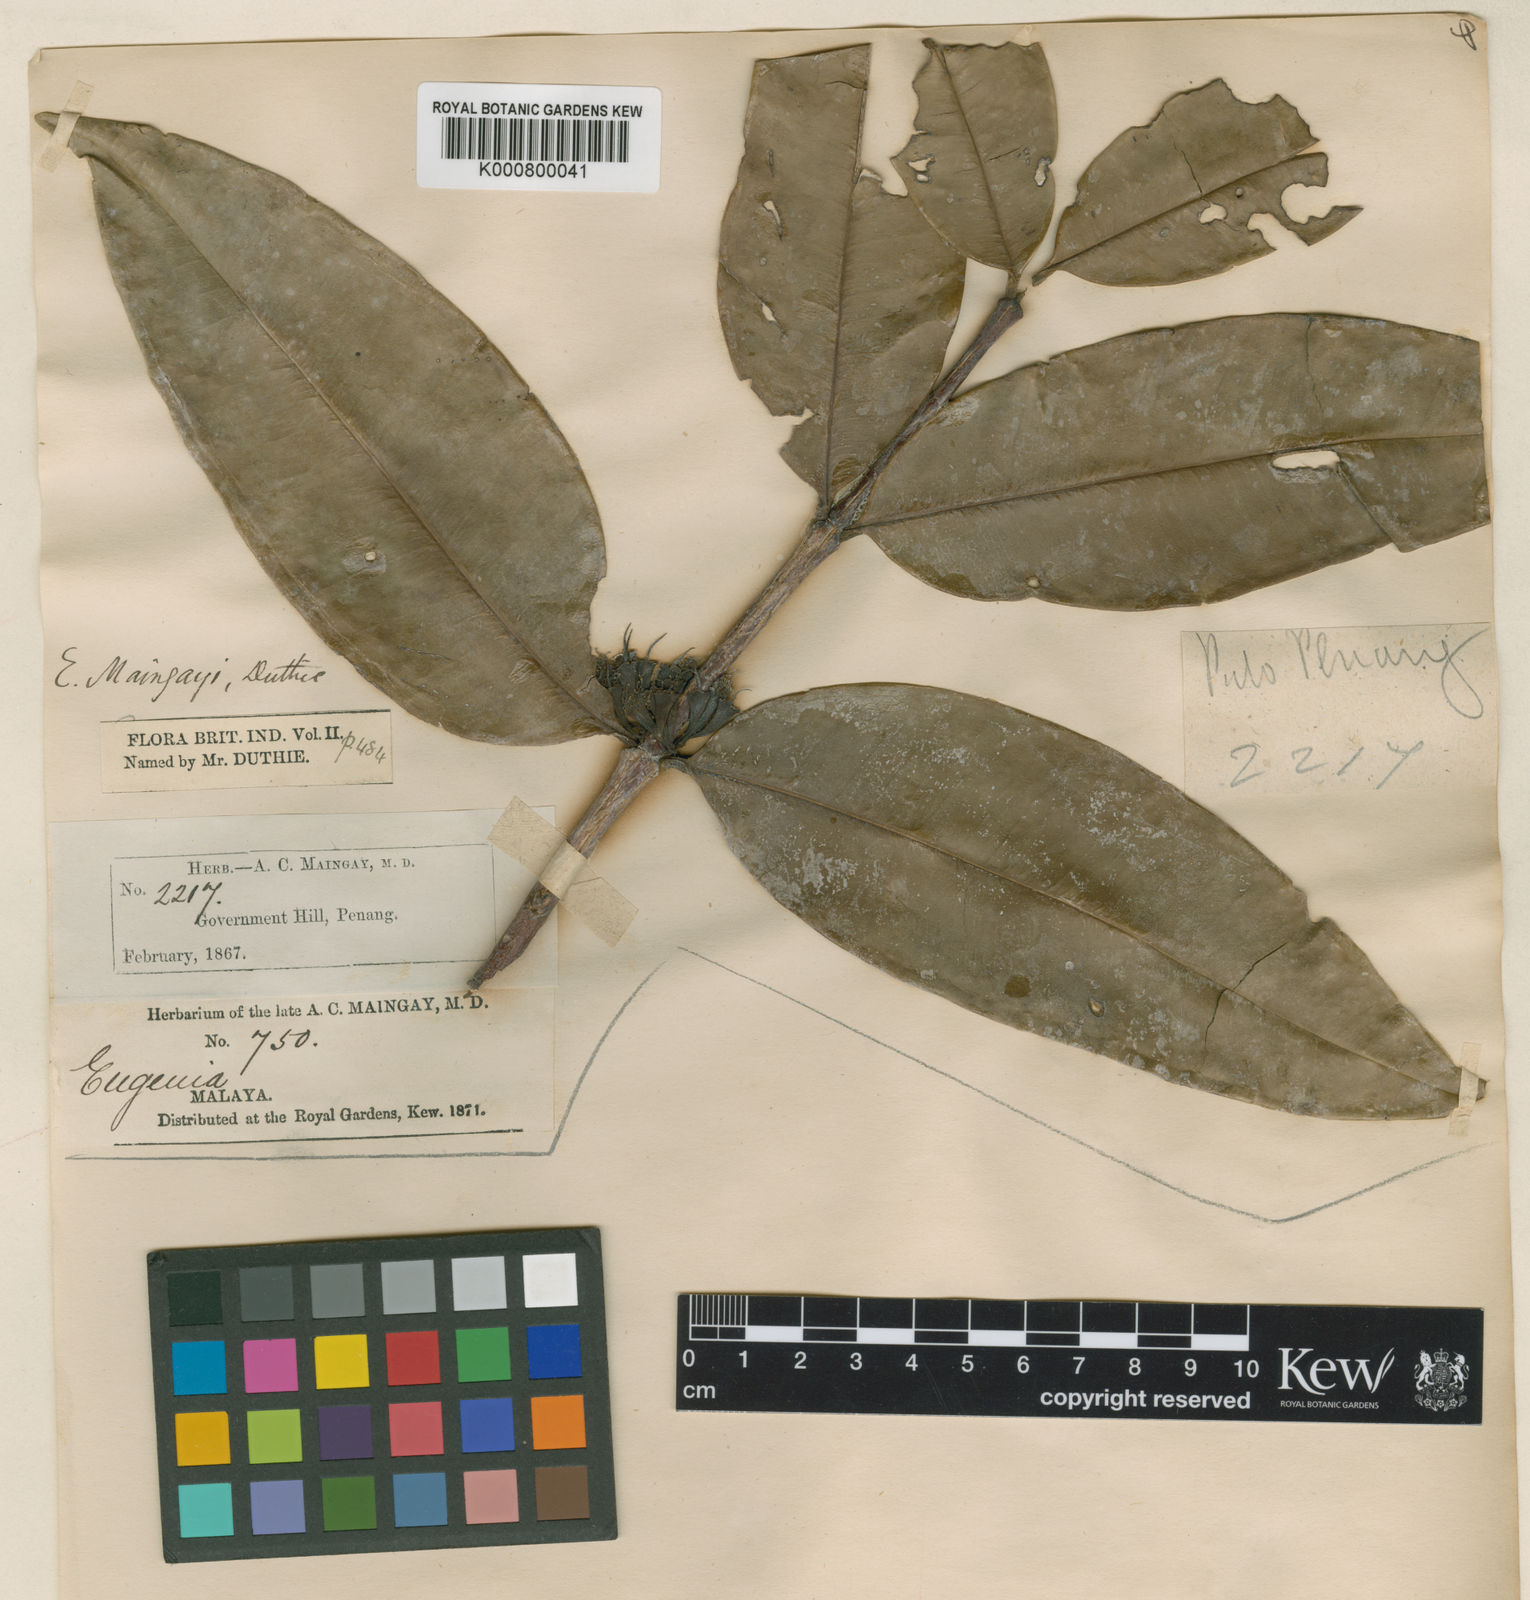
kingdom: Plantae
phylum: Tracheophyta
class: Magnoliopsida
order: Myrtales
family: Myrtaceae
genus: Syzygium
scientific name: Syzygium claviflorum
